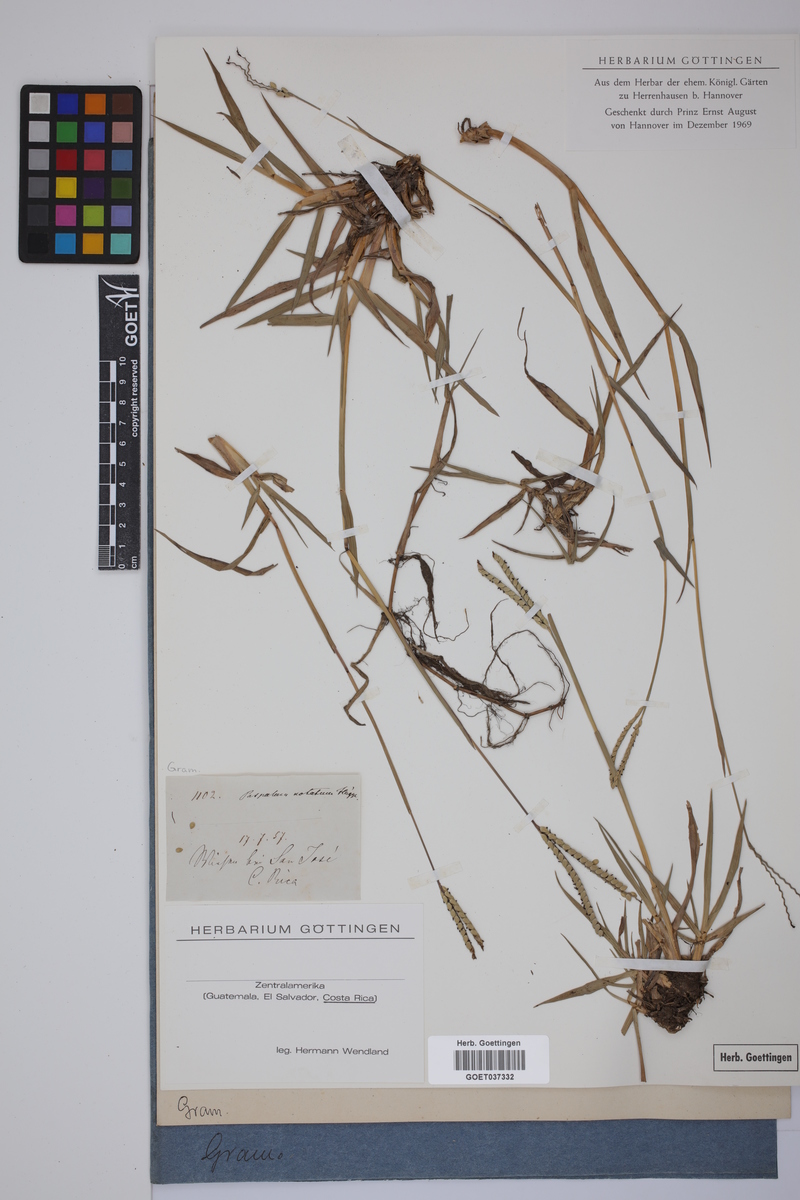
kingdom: Plantae
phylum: Tracheophyta
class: Liliopsida
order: Poales
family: Poaceae
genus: Paspalum
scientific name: Paspalum notatum
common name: Bahiagrass
